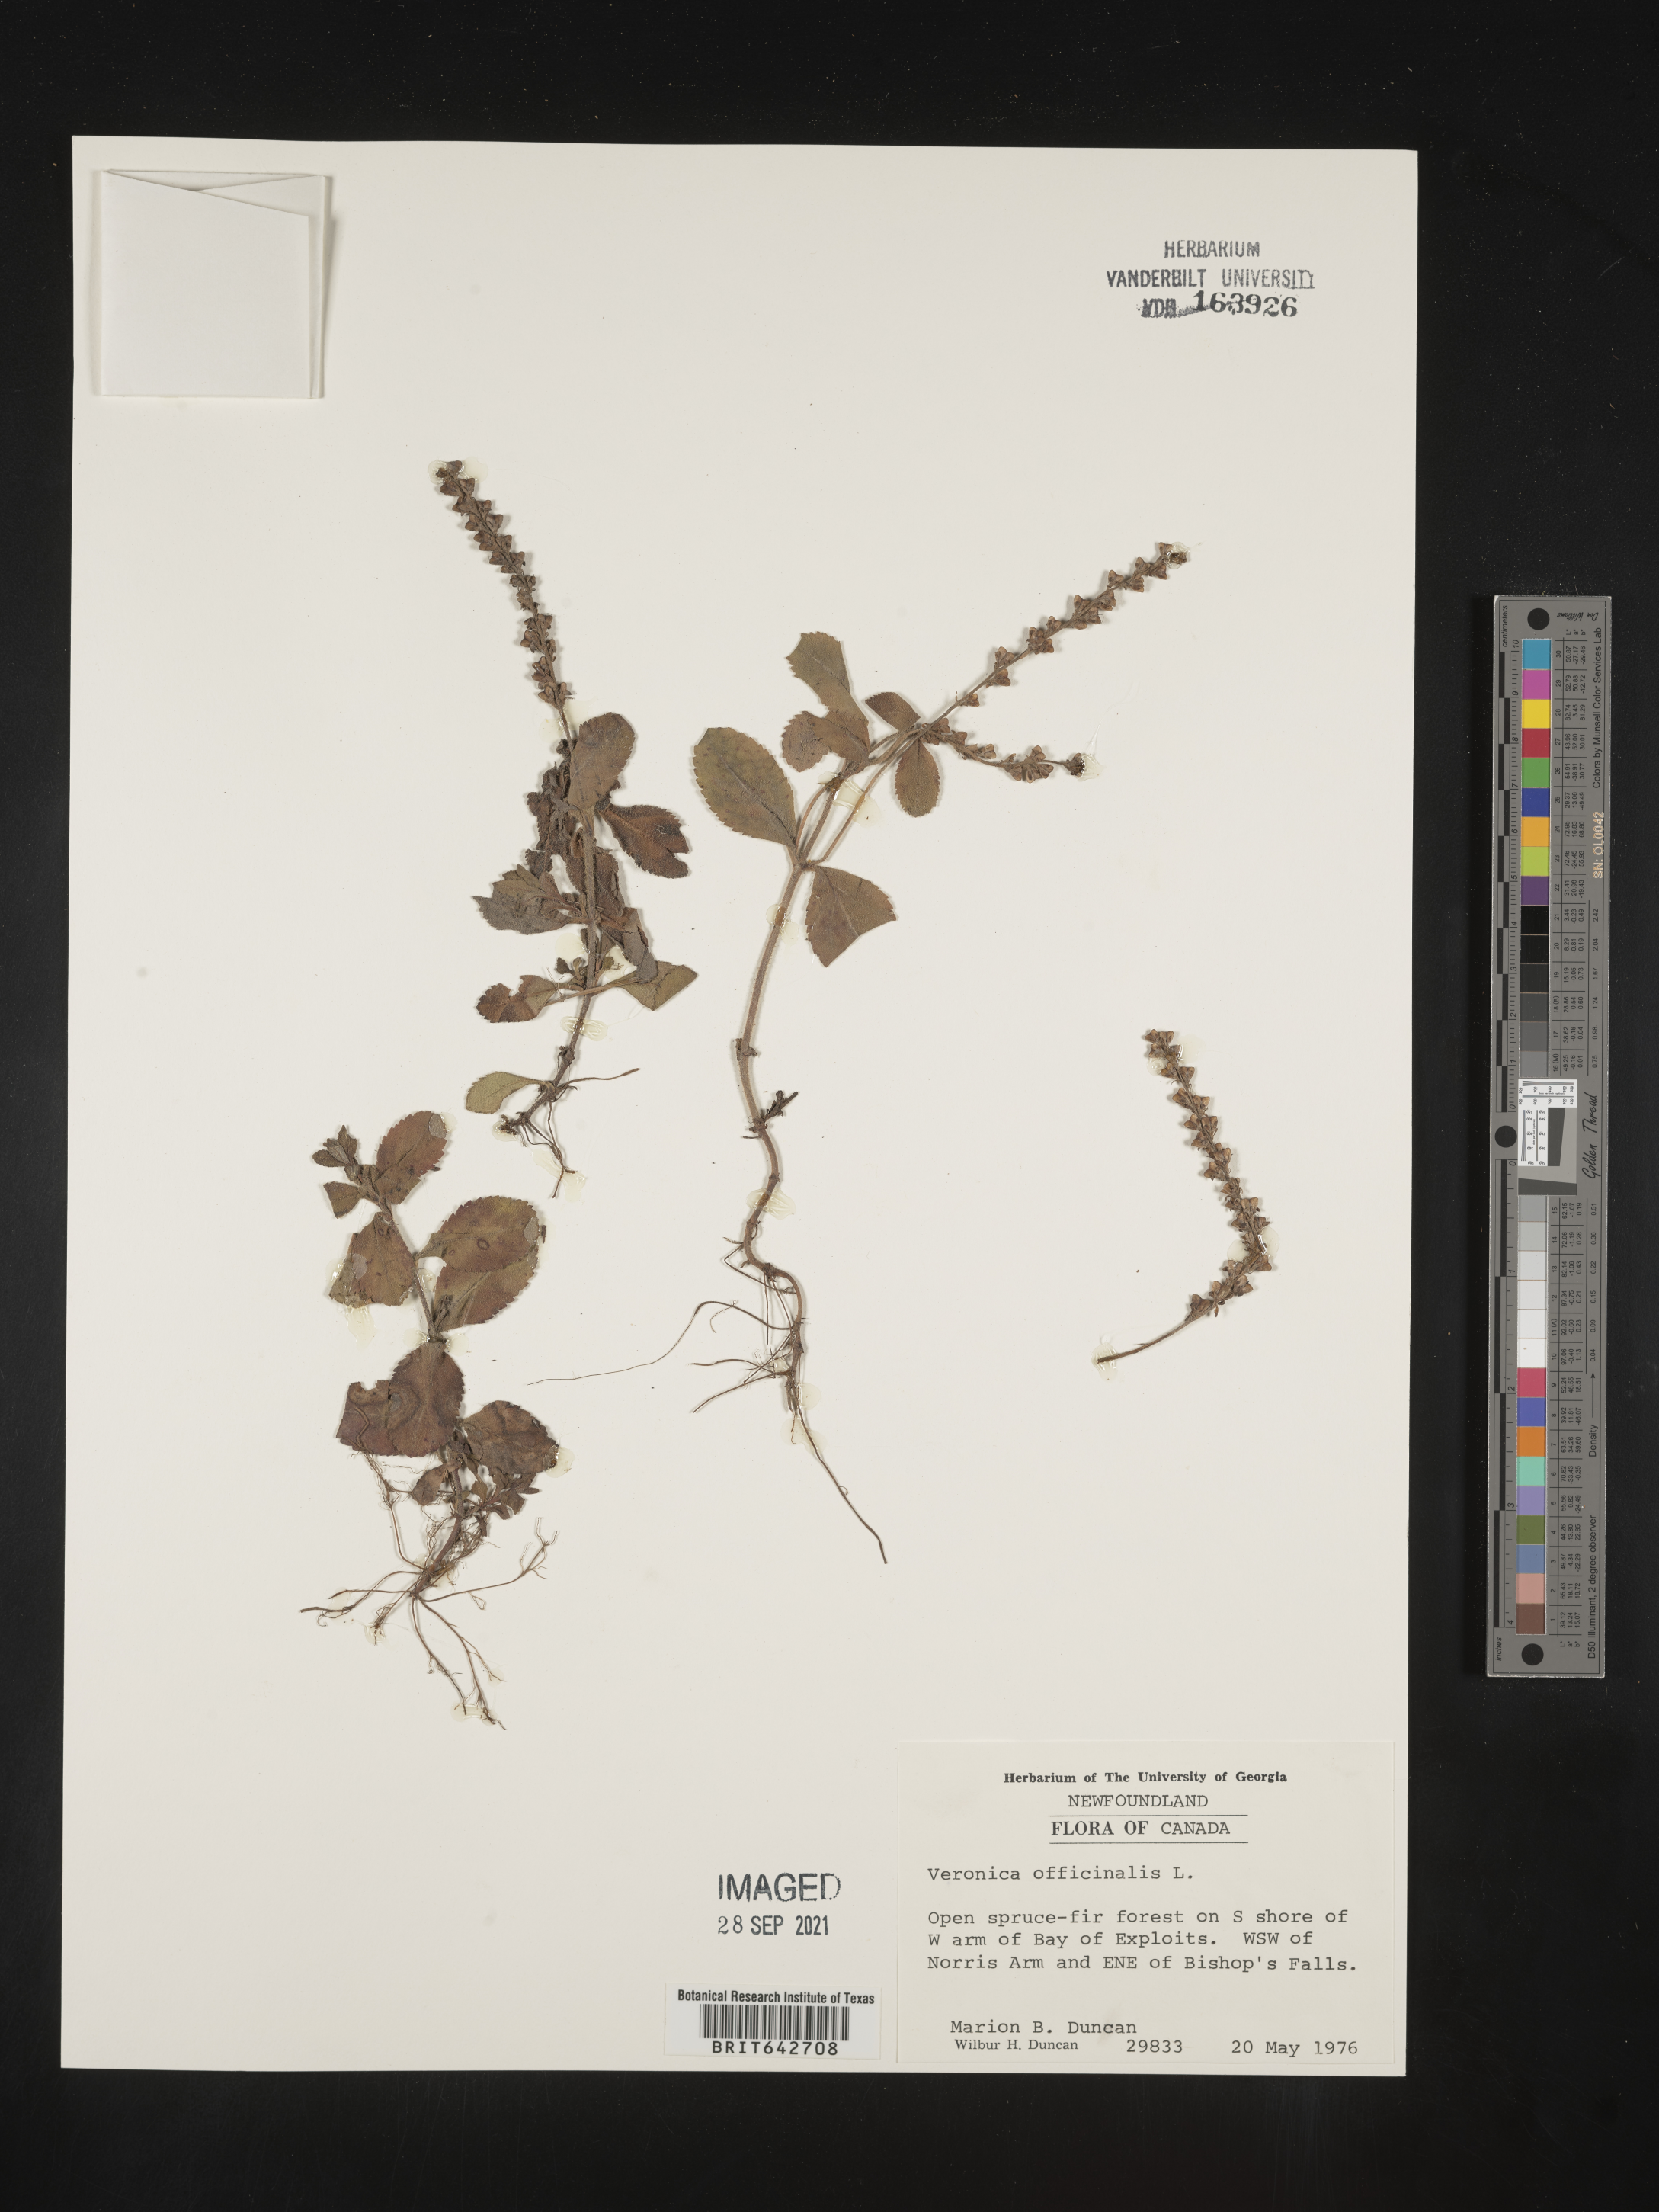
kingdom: Plantae
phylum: Tracheophyta
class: Magnoliopsida
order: Lamiales
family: Plantaginaceae
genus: Veronica
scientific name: Veronica
